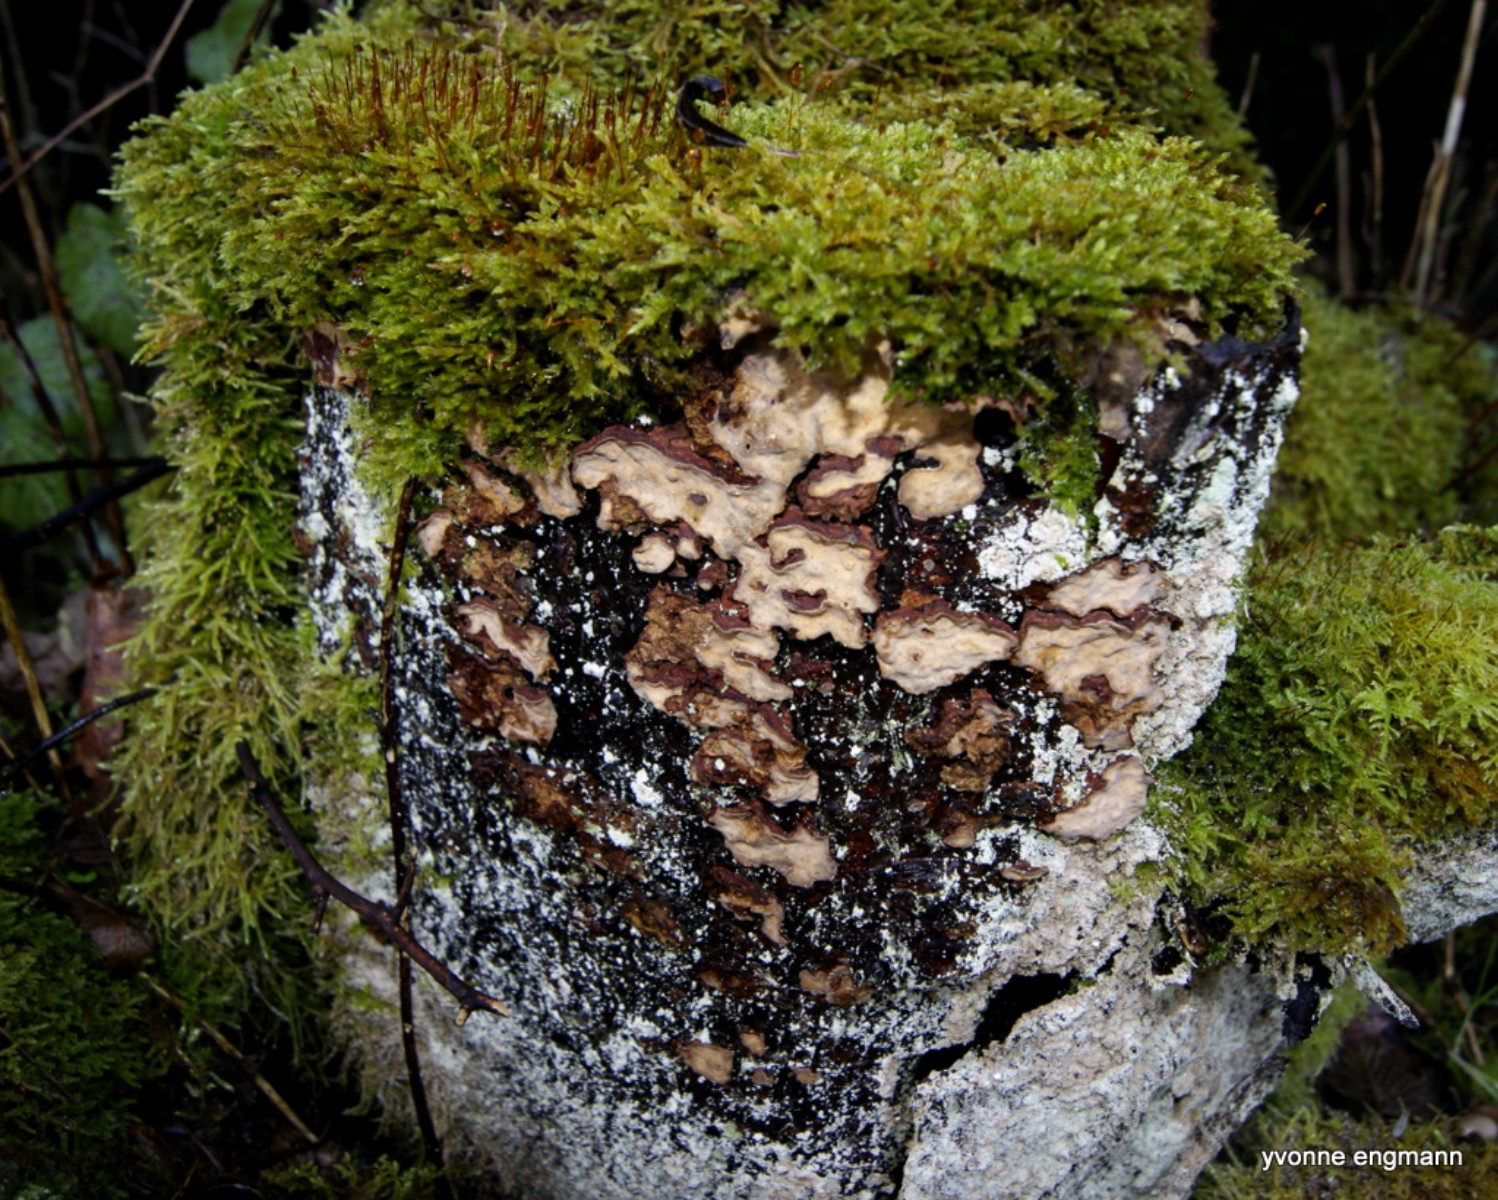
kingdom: Fungi
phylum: Basidiomycota
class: Agaricomycetes
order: Russulales
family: Stereaceae
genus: Stereum
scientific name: Stereum rugosum
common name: rynket lædersvamp
